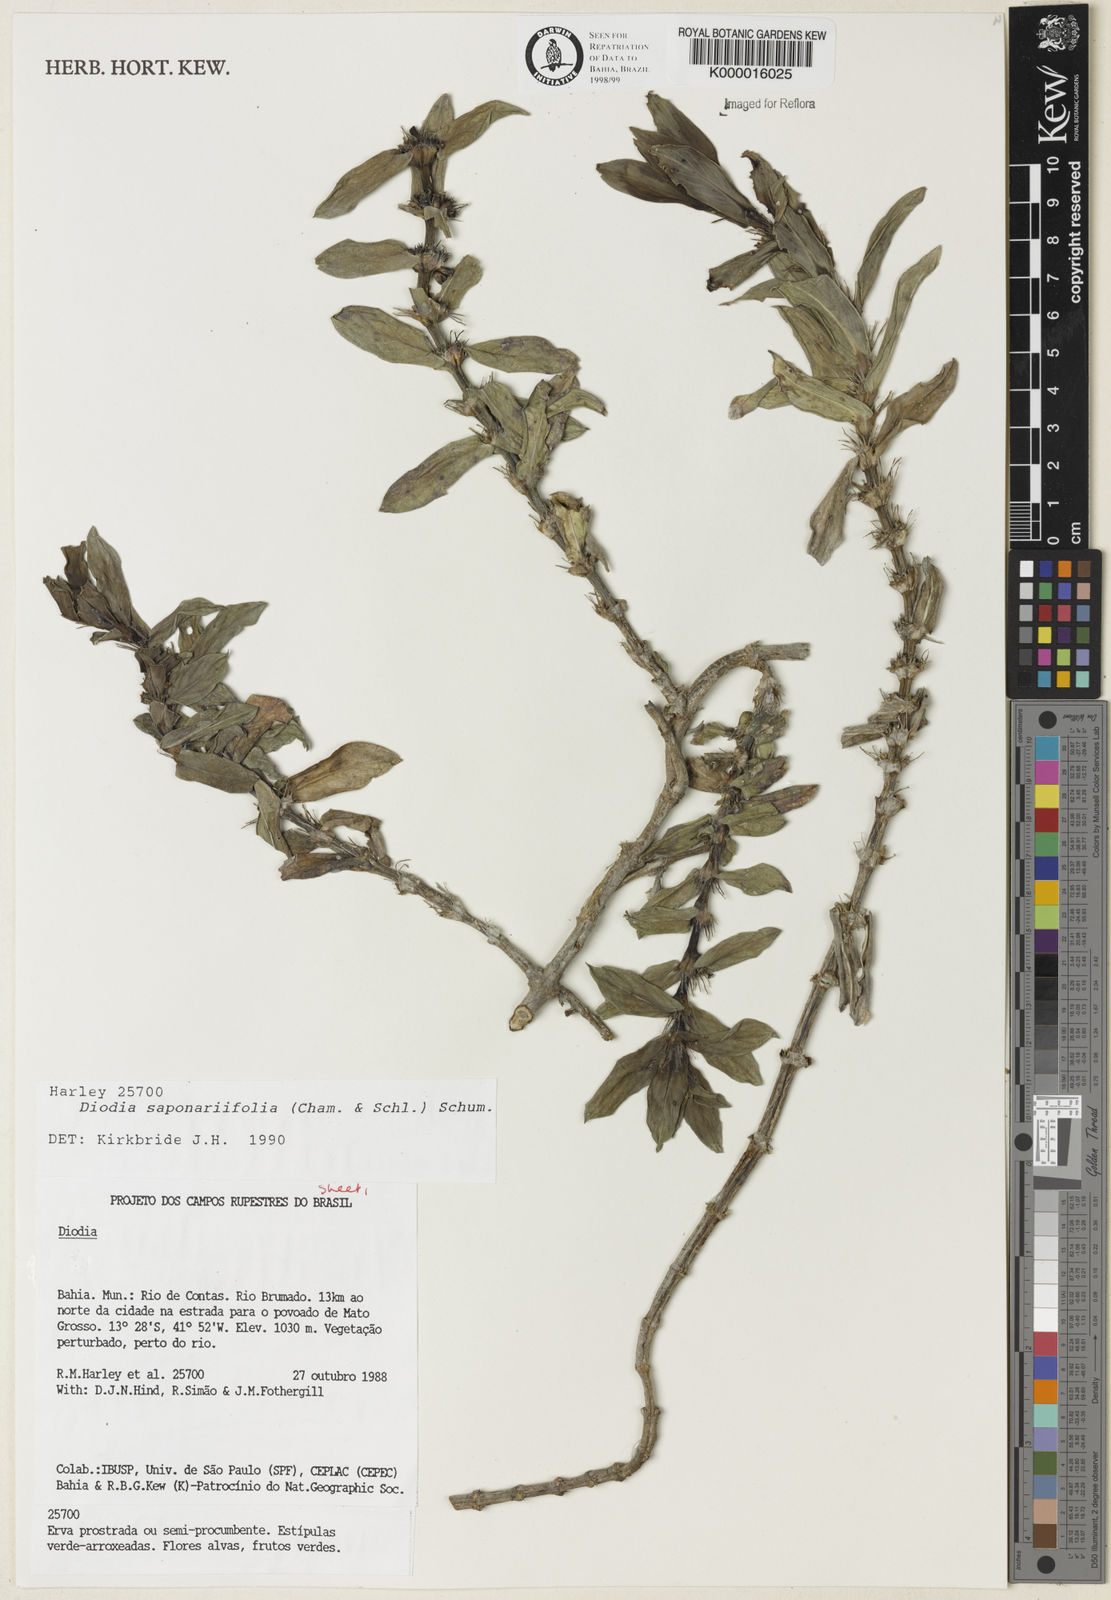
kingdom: Plantae
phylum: Tracheophyta
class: Magnoliopsida
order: Gentianales
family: Rubiaceae
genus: Diodia
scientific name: Diodia saponariifolia
